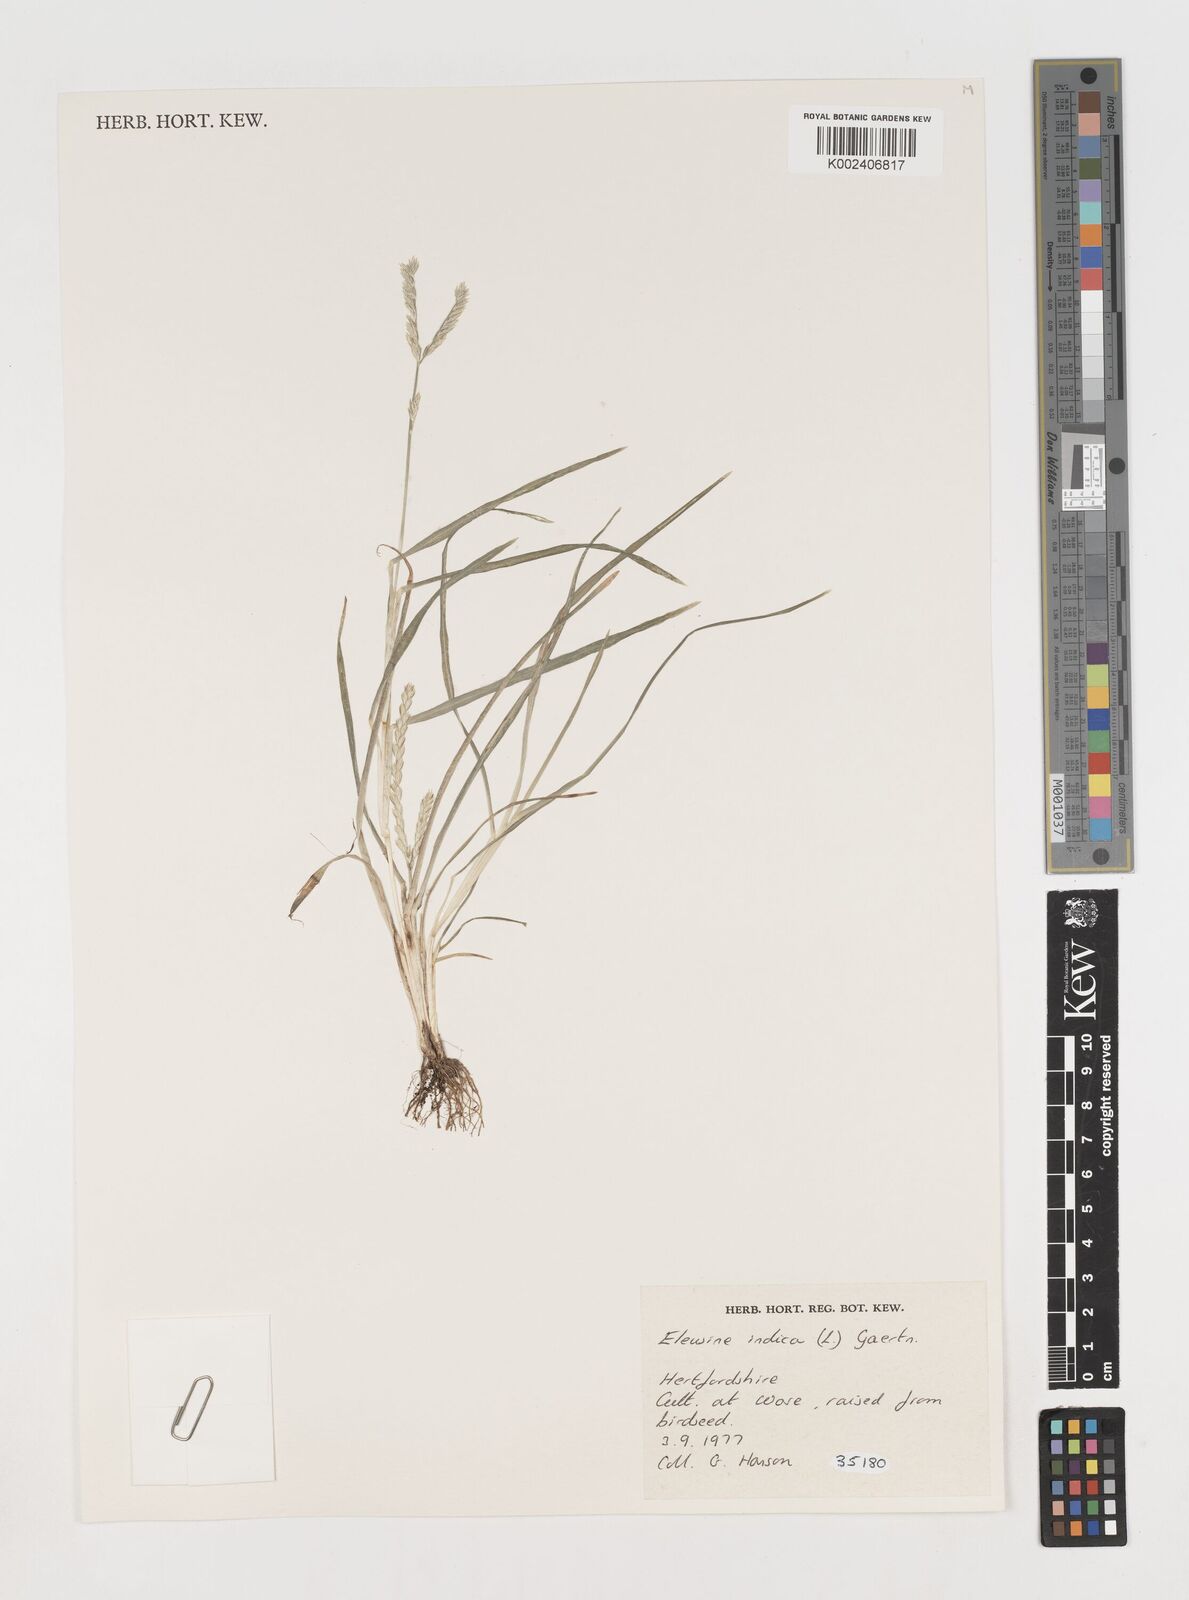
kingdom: Plantae
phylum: Tracheophyta
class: Liliopsida
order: Poales
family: Poaceae
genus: Eleusine
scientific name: Eleusine indica
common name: Yard-grass
